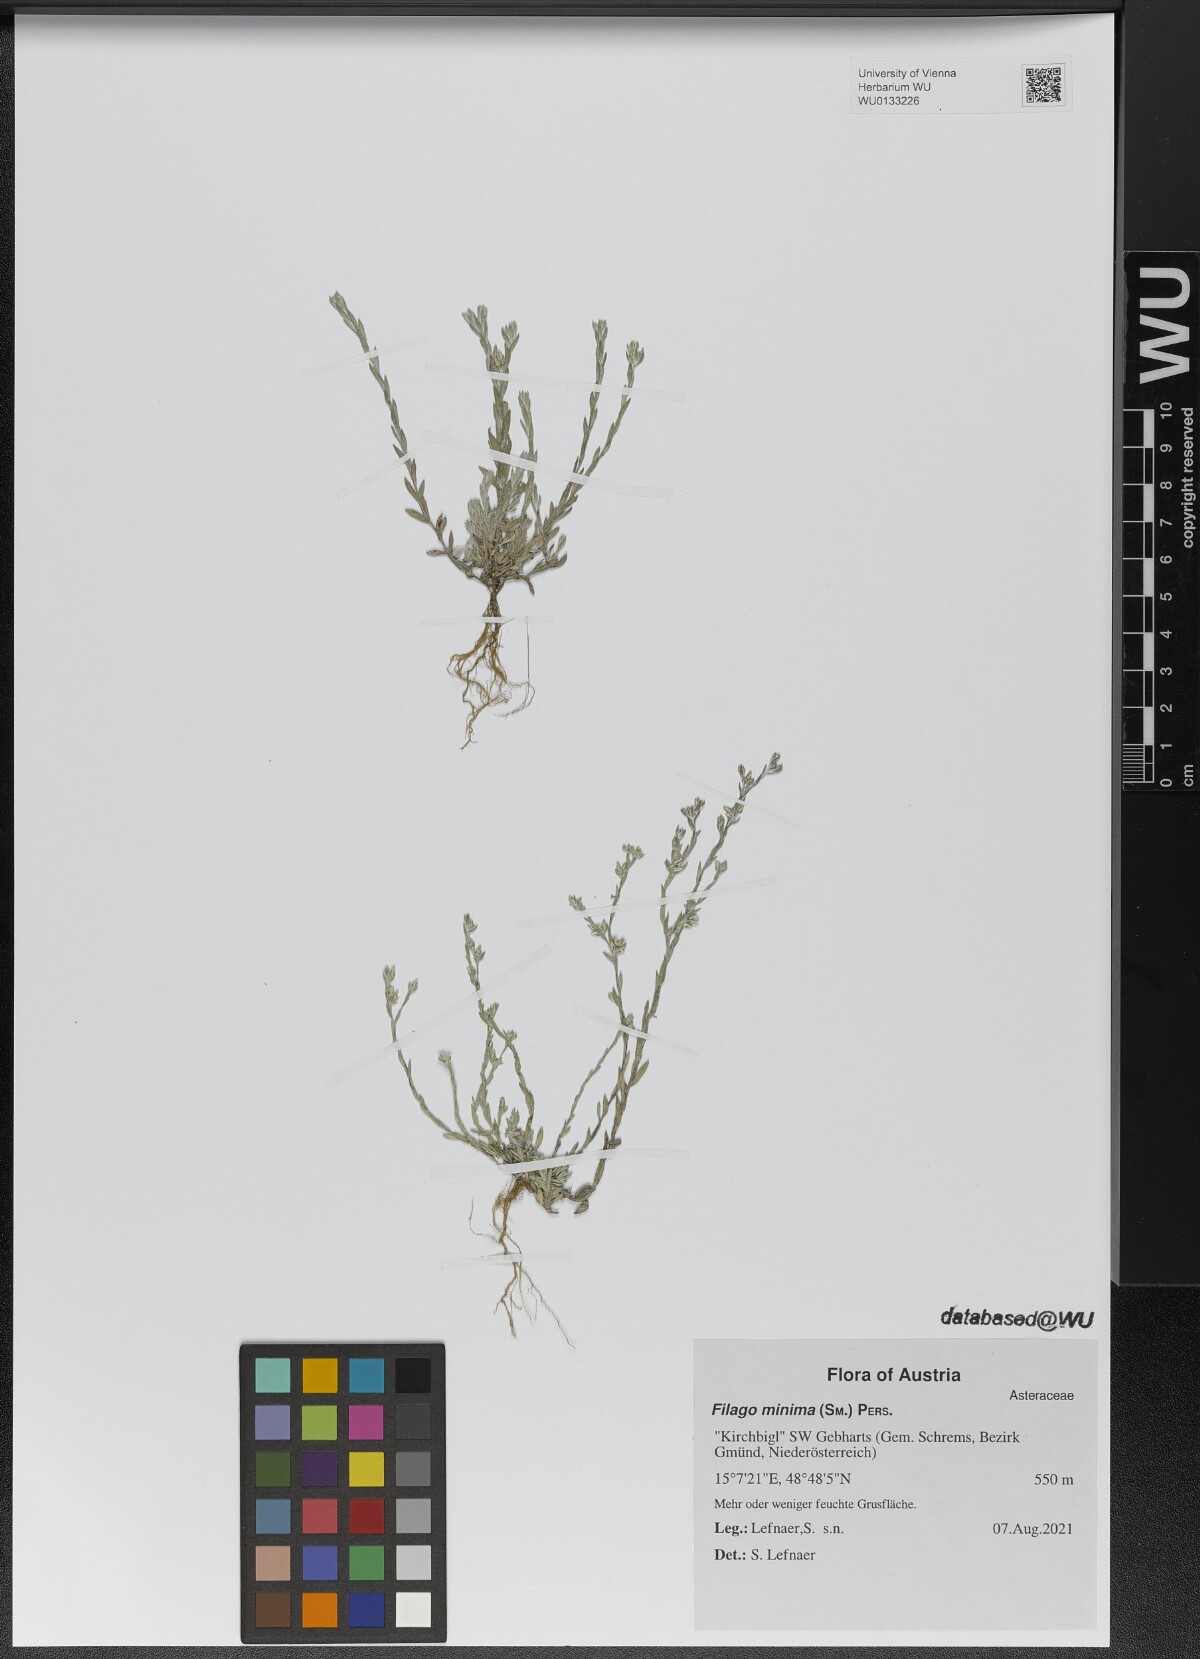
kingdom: Plantae
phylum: Tracheophyta
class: Magnoliopsida
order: Asterales
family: Asteraceae
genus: Logfia
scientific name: Logfia minima
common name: Little cottonrose
